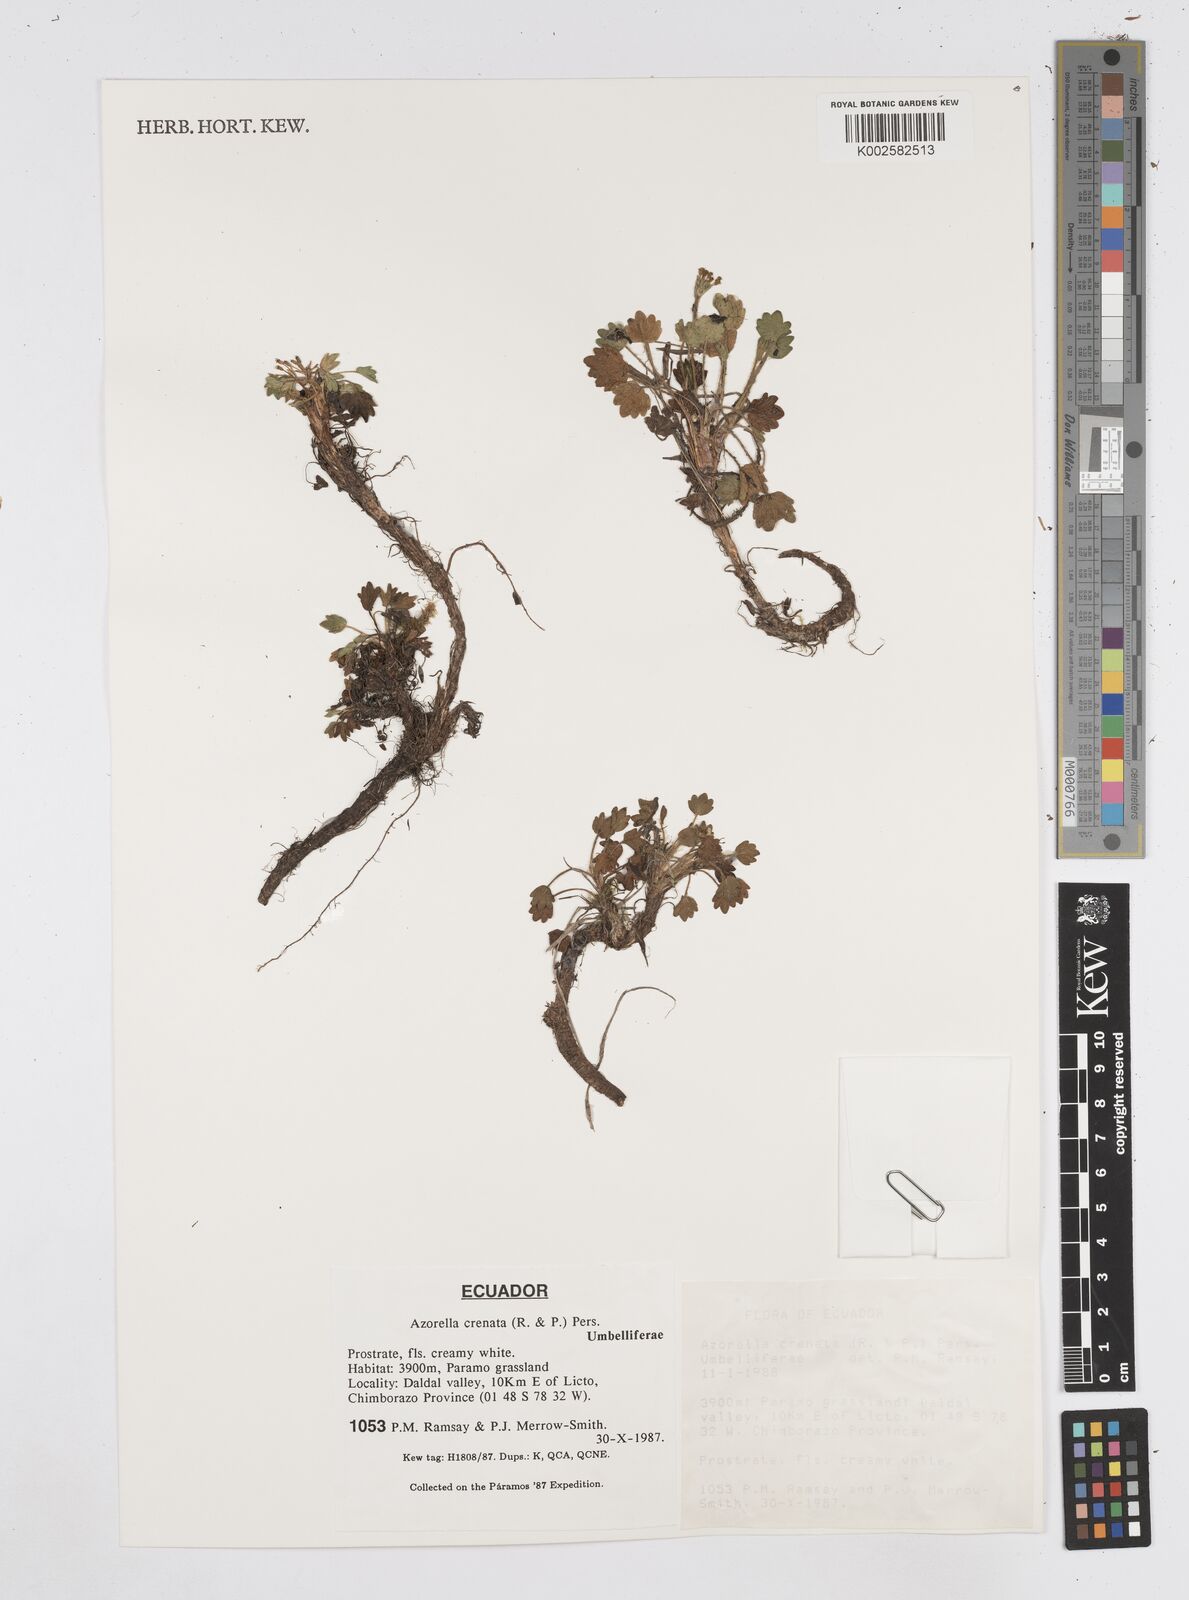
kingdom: Plantae
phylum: Tracheophyta
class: Magnoliopsida
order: Apiales
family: Apiaceae
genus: Azorella
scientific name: Azorella crenata
